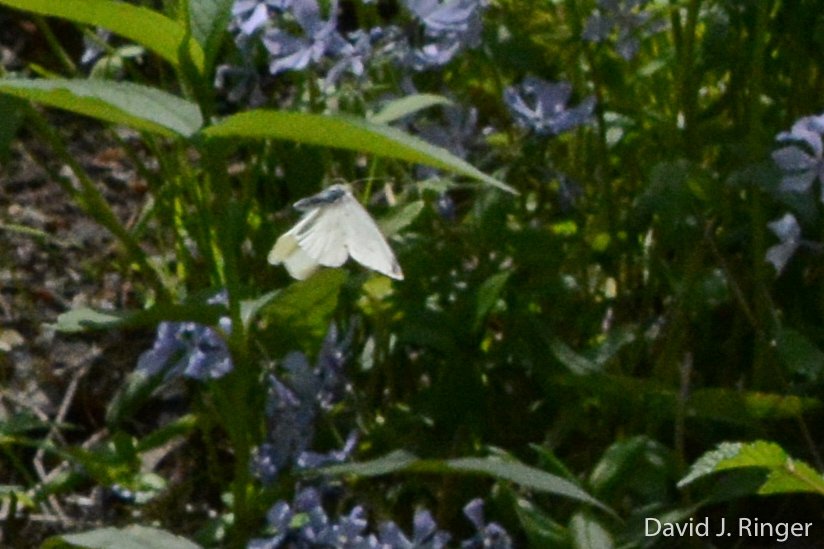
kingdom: Animalia
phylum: Arthropoda
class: Insecta
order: Lepidoptera
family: Pieridae
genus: Pieris
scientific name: Pieris rapae
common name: Cabbage White
